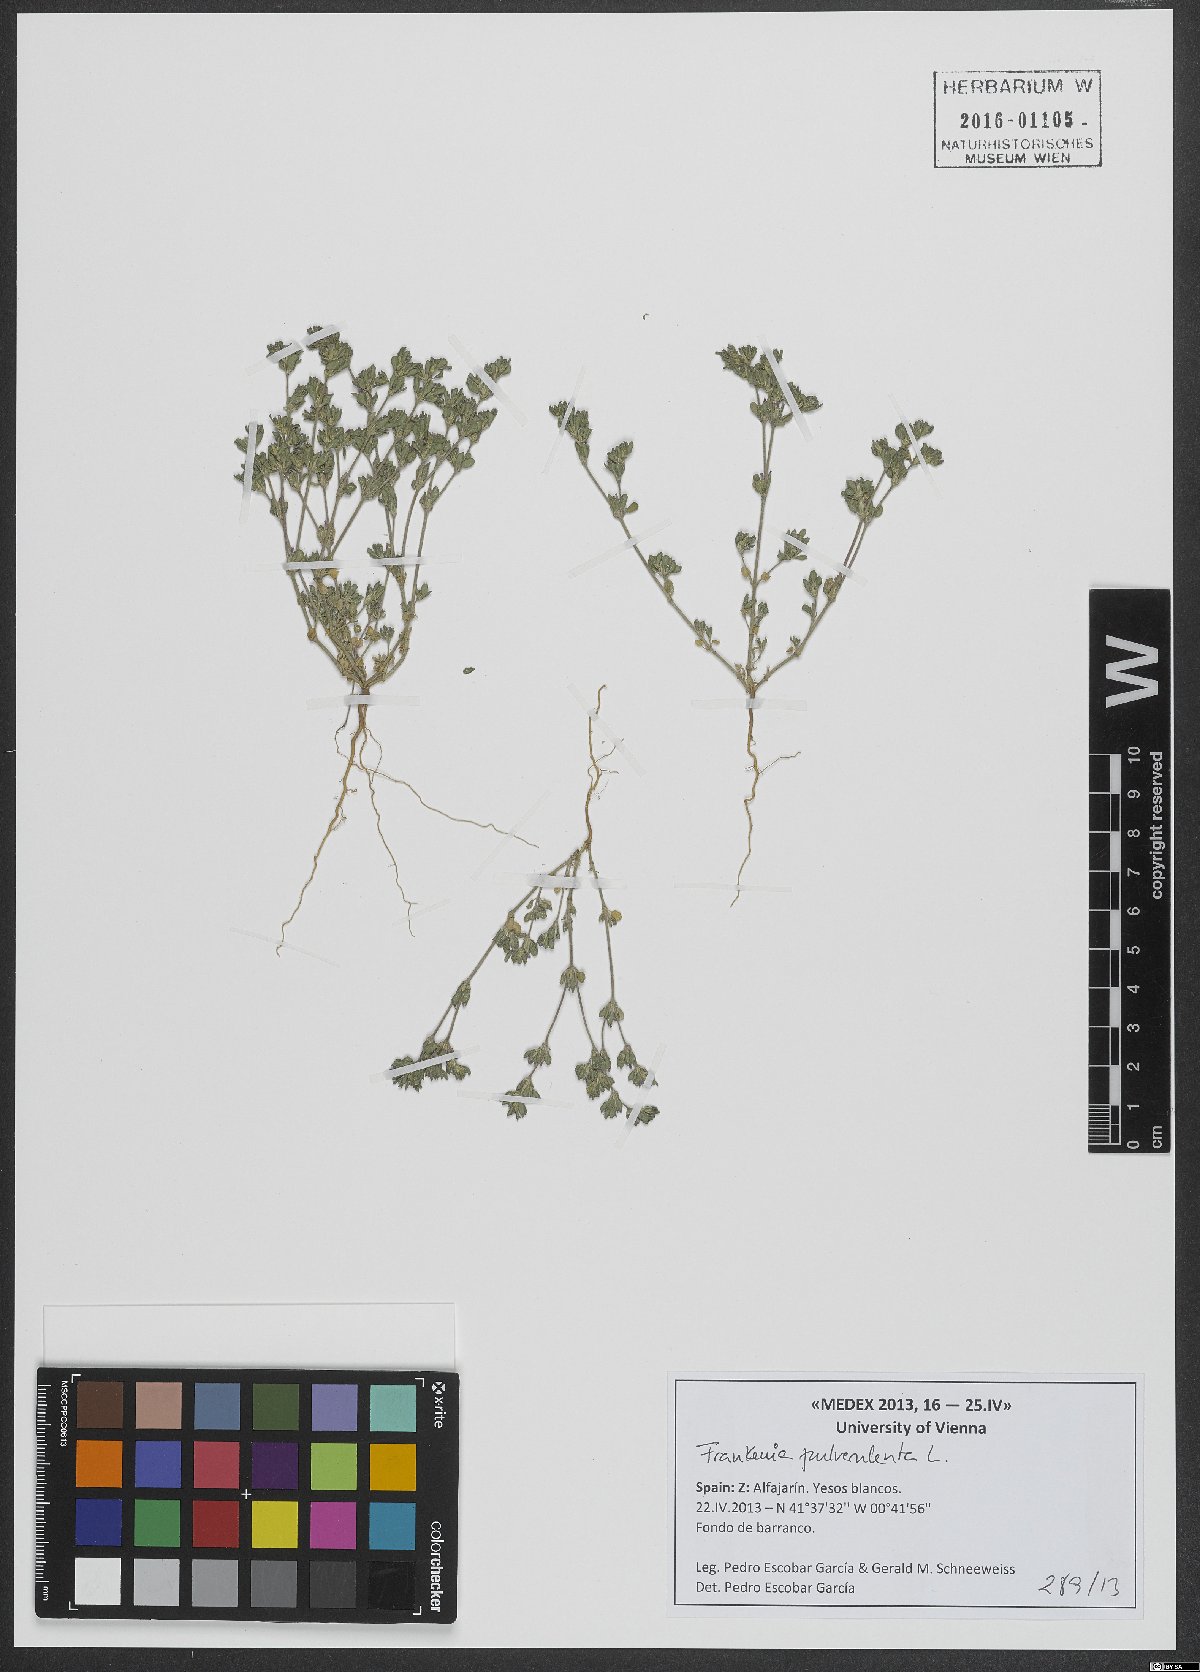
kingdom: Plantae
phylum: Tracheophyta
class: Magnoliopsida
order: Caryophyllales
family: Frankeniaceae
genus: Frankenia
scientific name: Frankenia pulverulenta
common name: European seaheath
